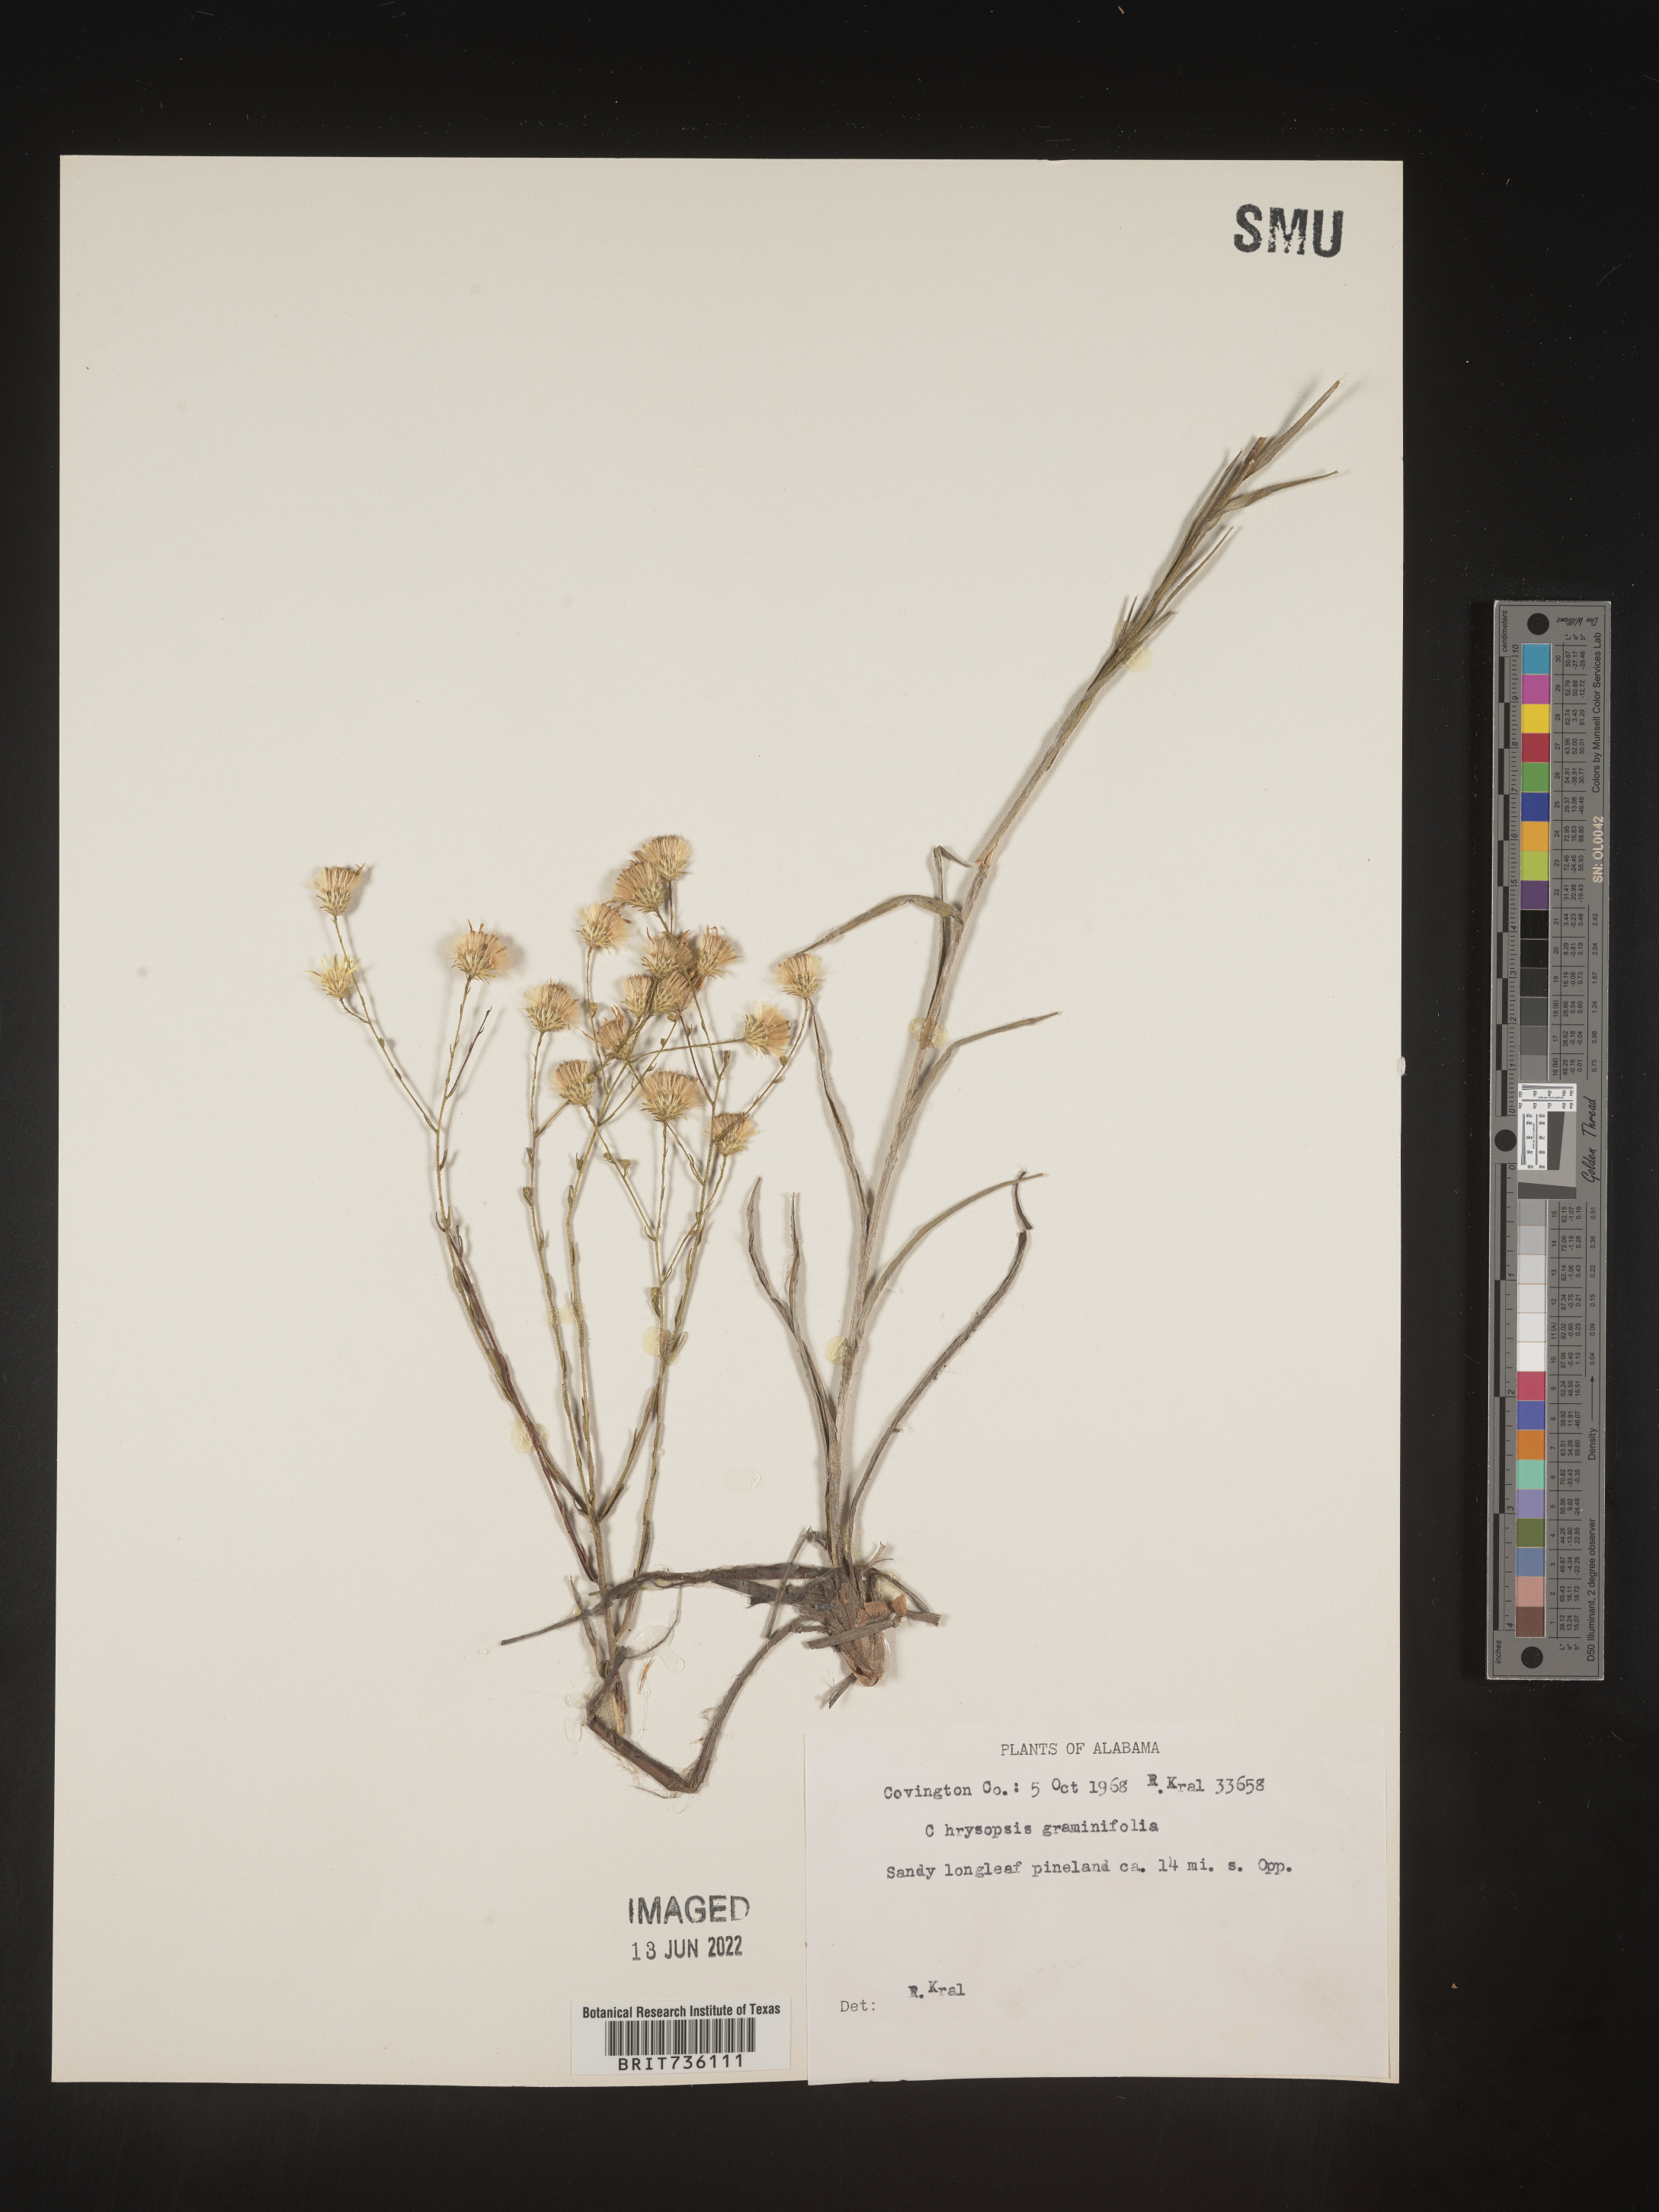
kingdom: Plantae
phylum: Tracheophyta
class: Magnoliopsida
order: Asterales
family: Asteraceae
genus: Pityopsis
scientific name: Pityopsis aspera
